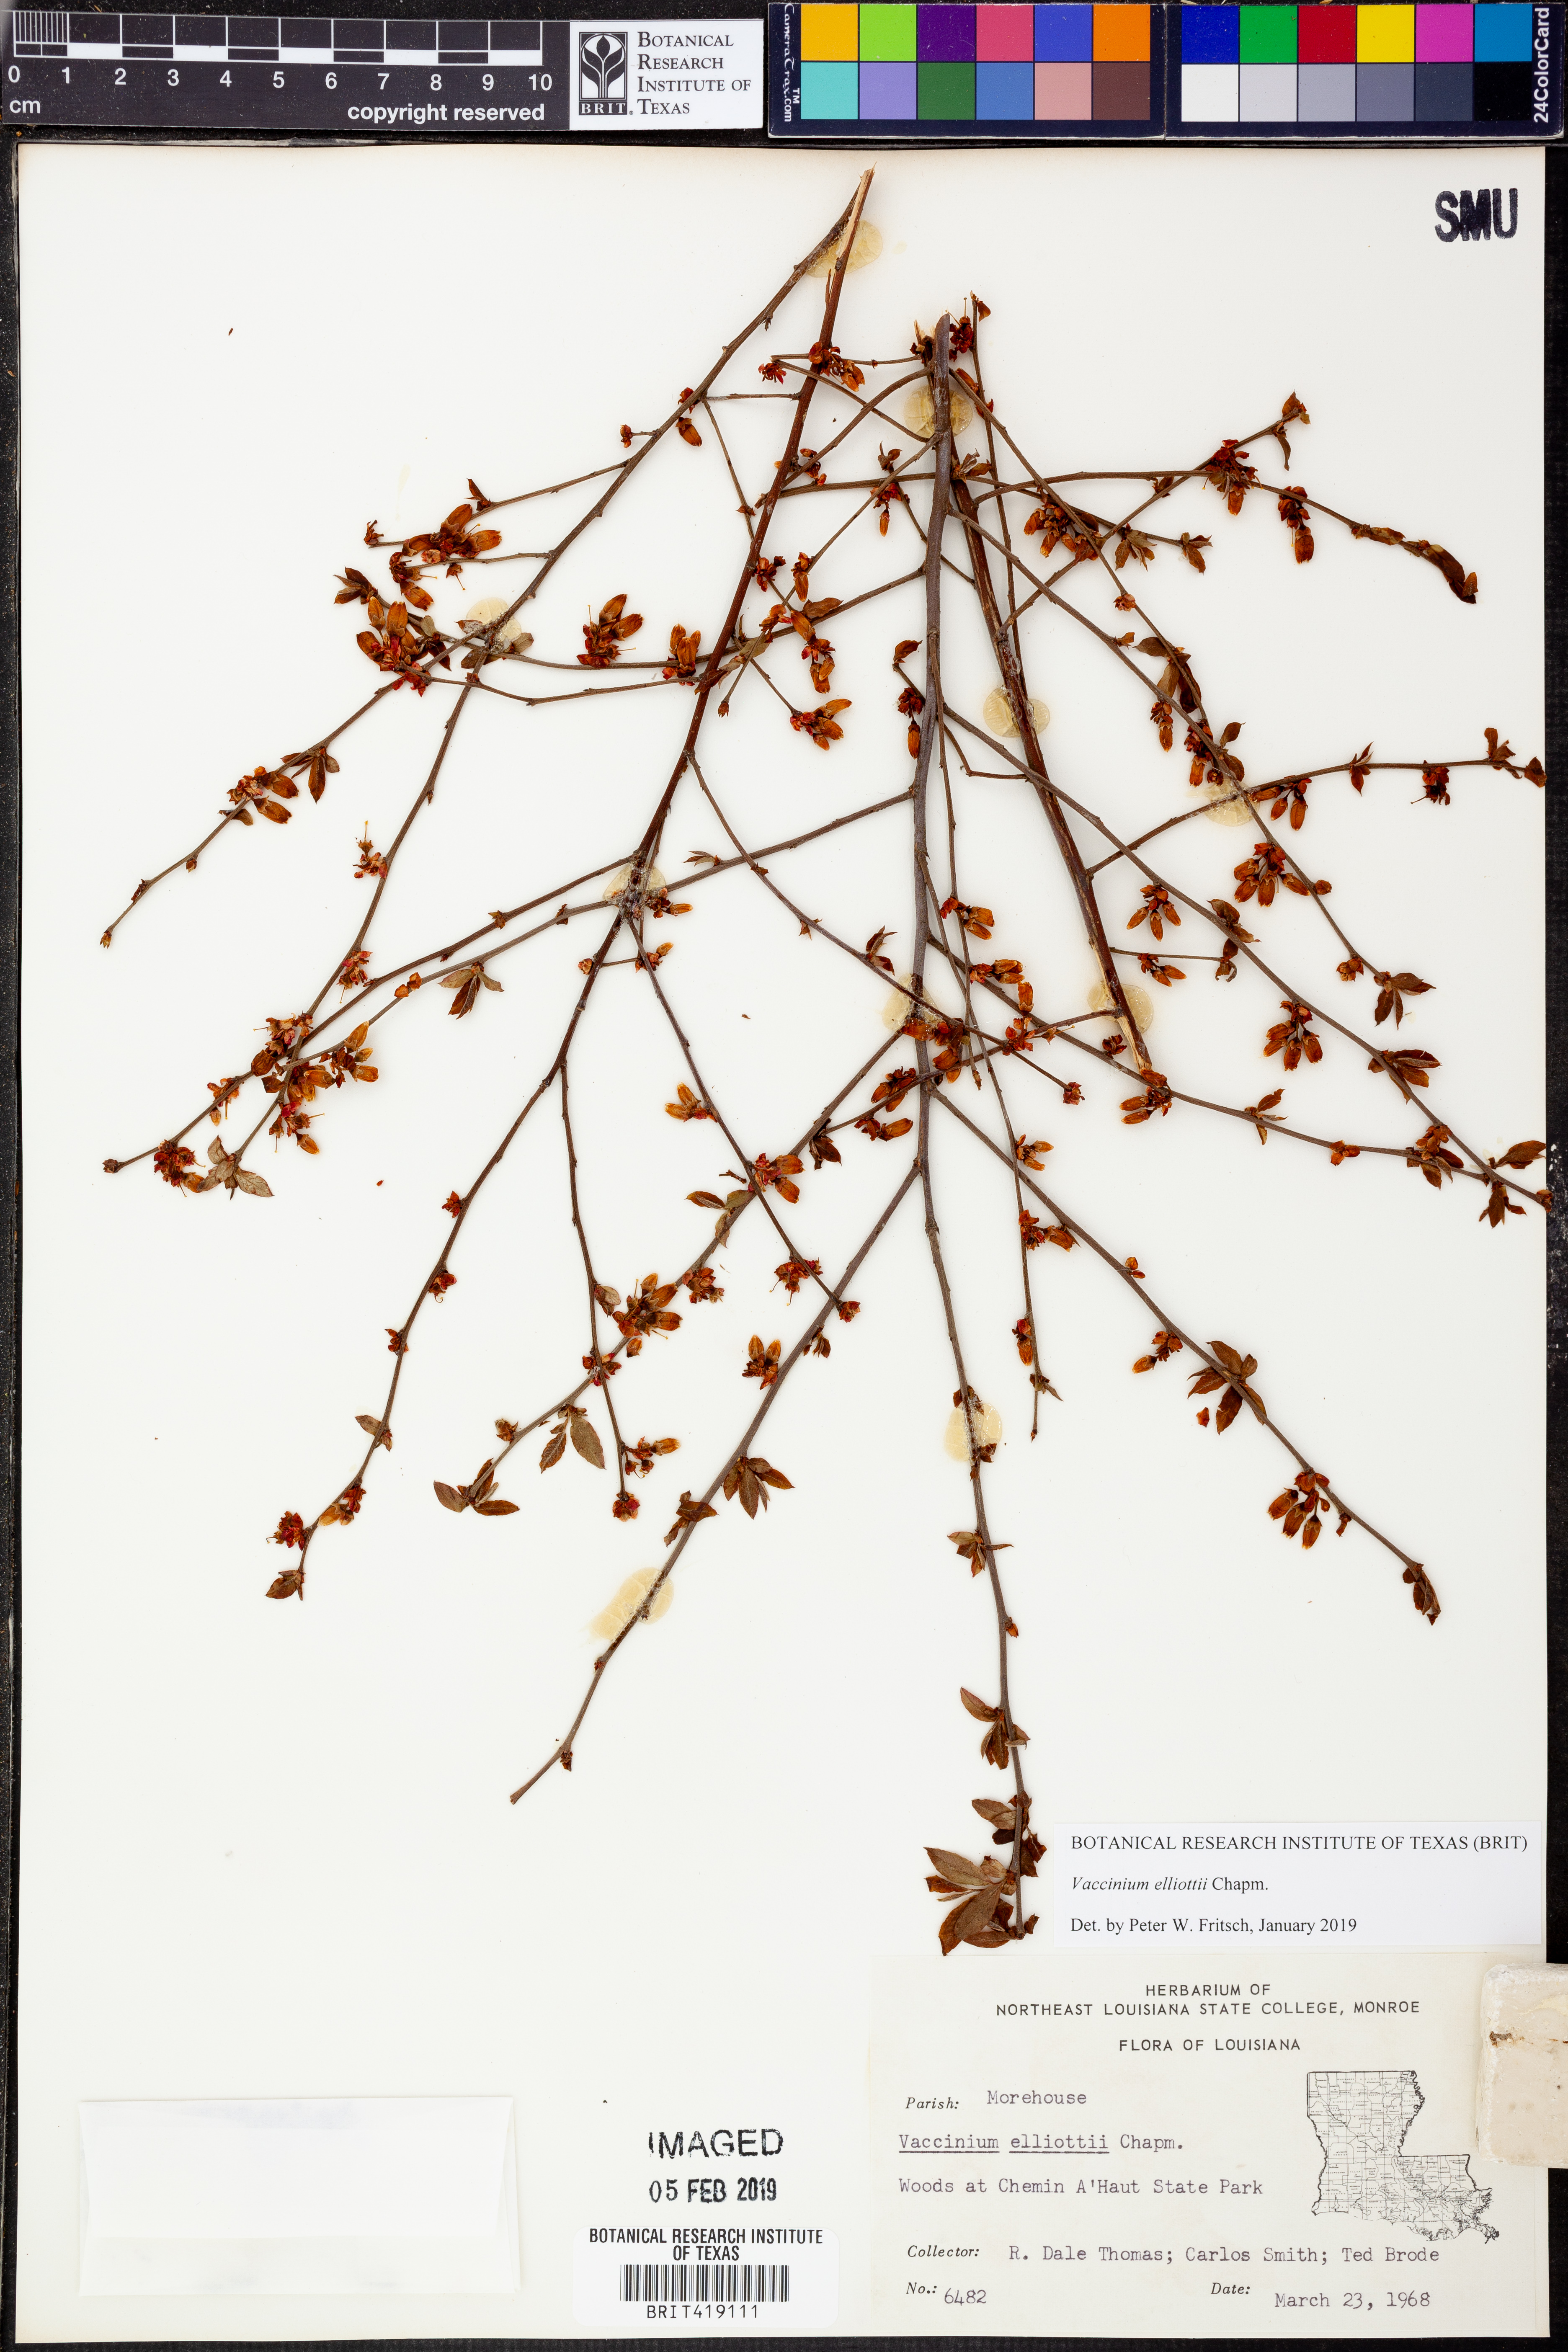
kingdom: Plantae
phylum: Tracheophyta
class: Magnoliopsida
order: Ericales
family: Ericaceae
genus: Vaccinium
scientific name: Vaccinium corymbosum
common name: Blueberry
